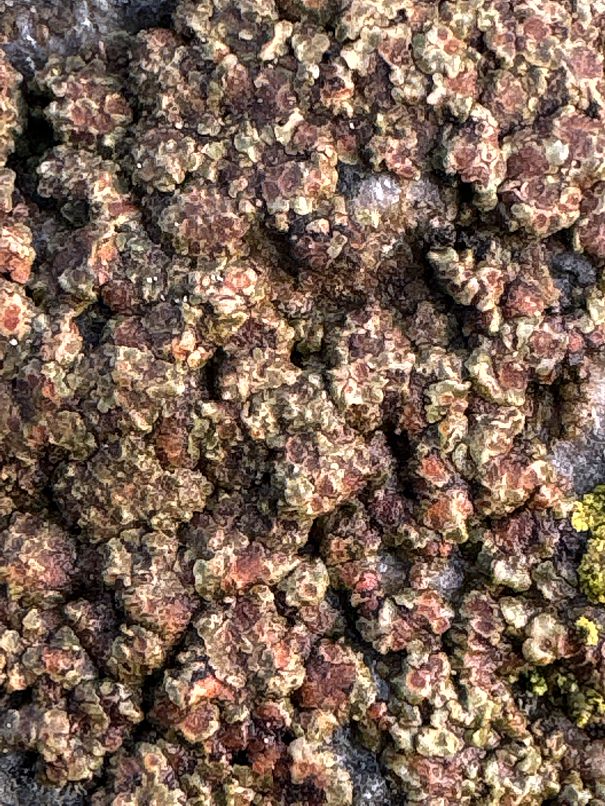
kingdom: Fungi
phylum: Ascomycota
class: Lecanoromycetes
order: Lecanorales
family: Parmeliaceae
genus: Lichen
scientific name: Lichen
